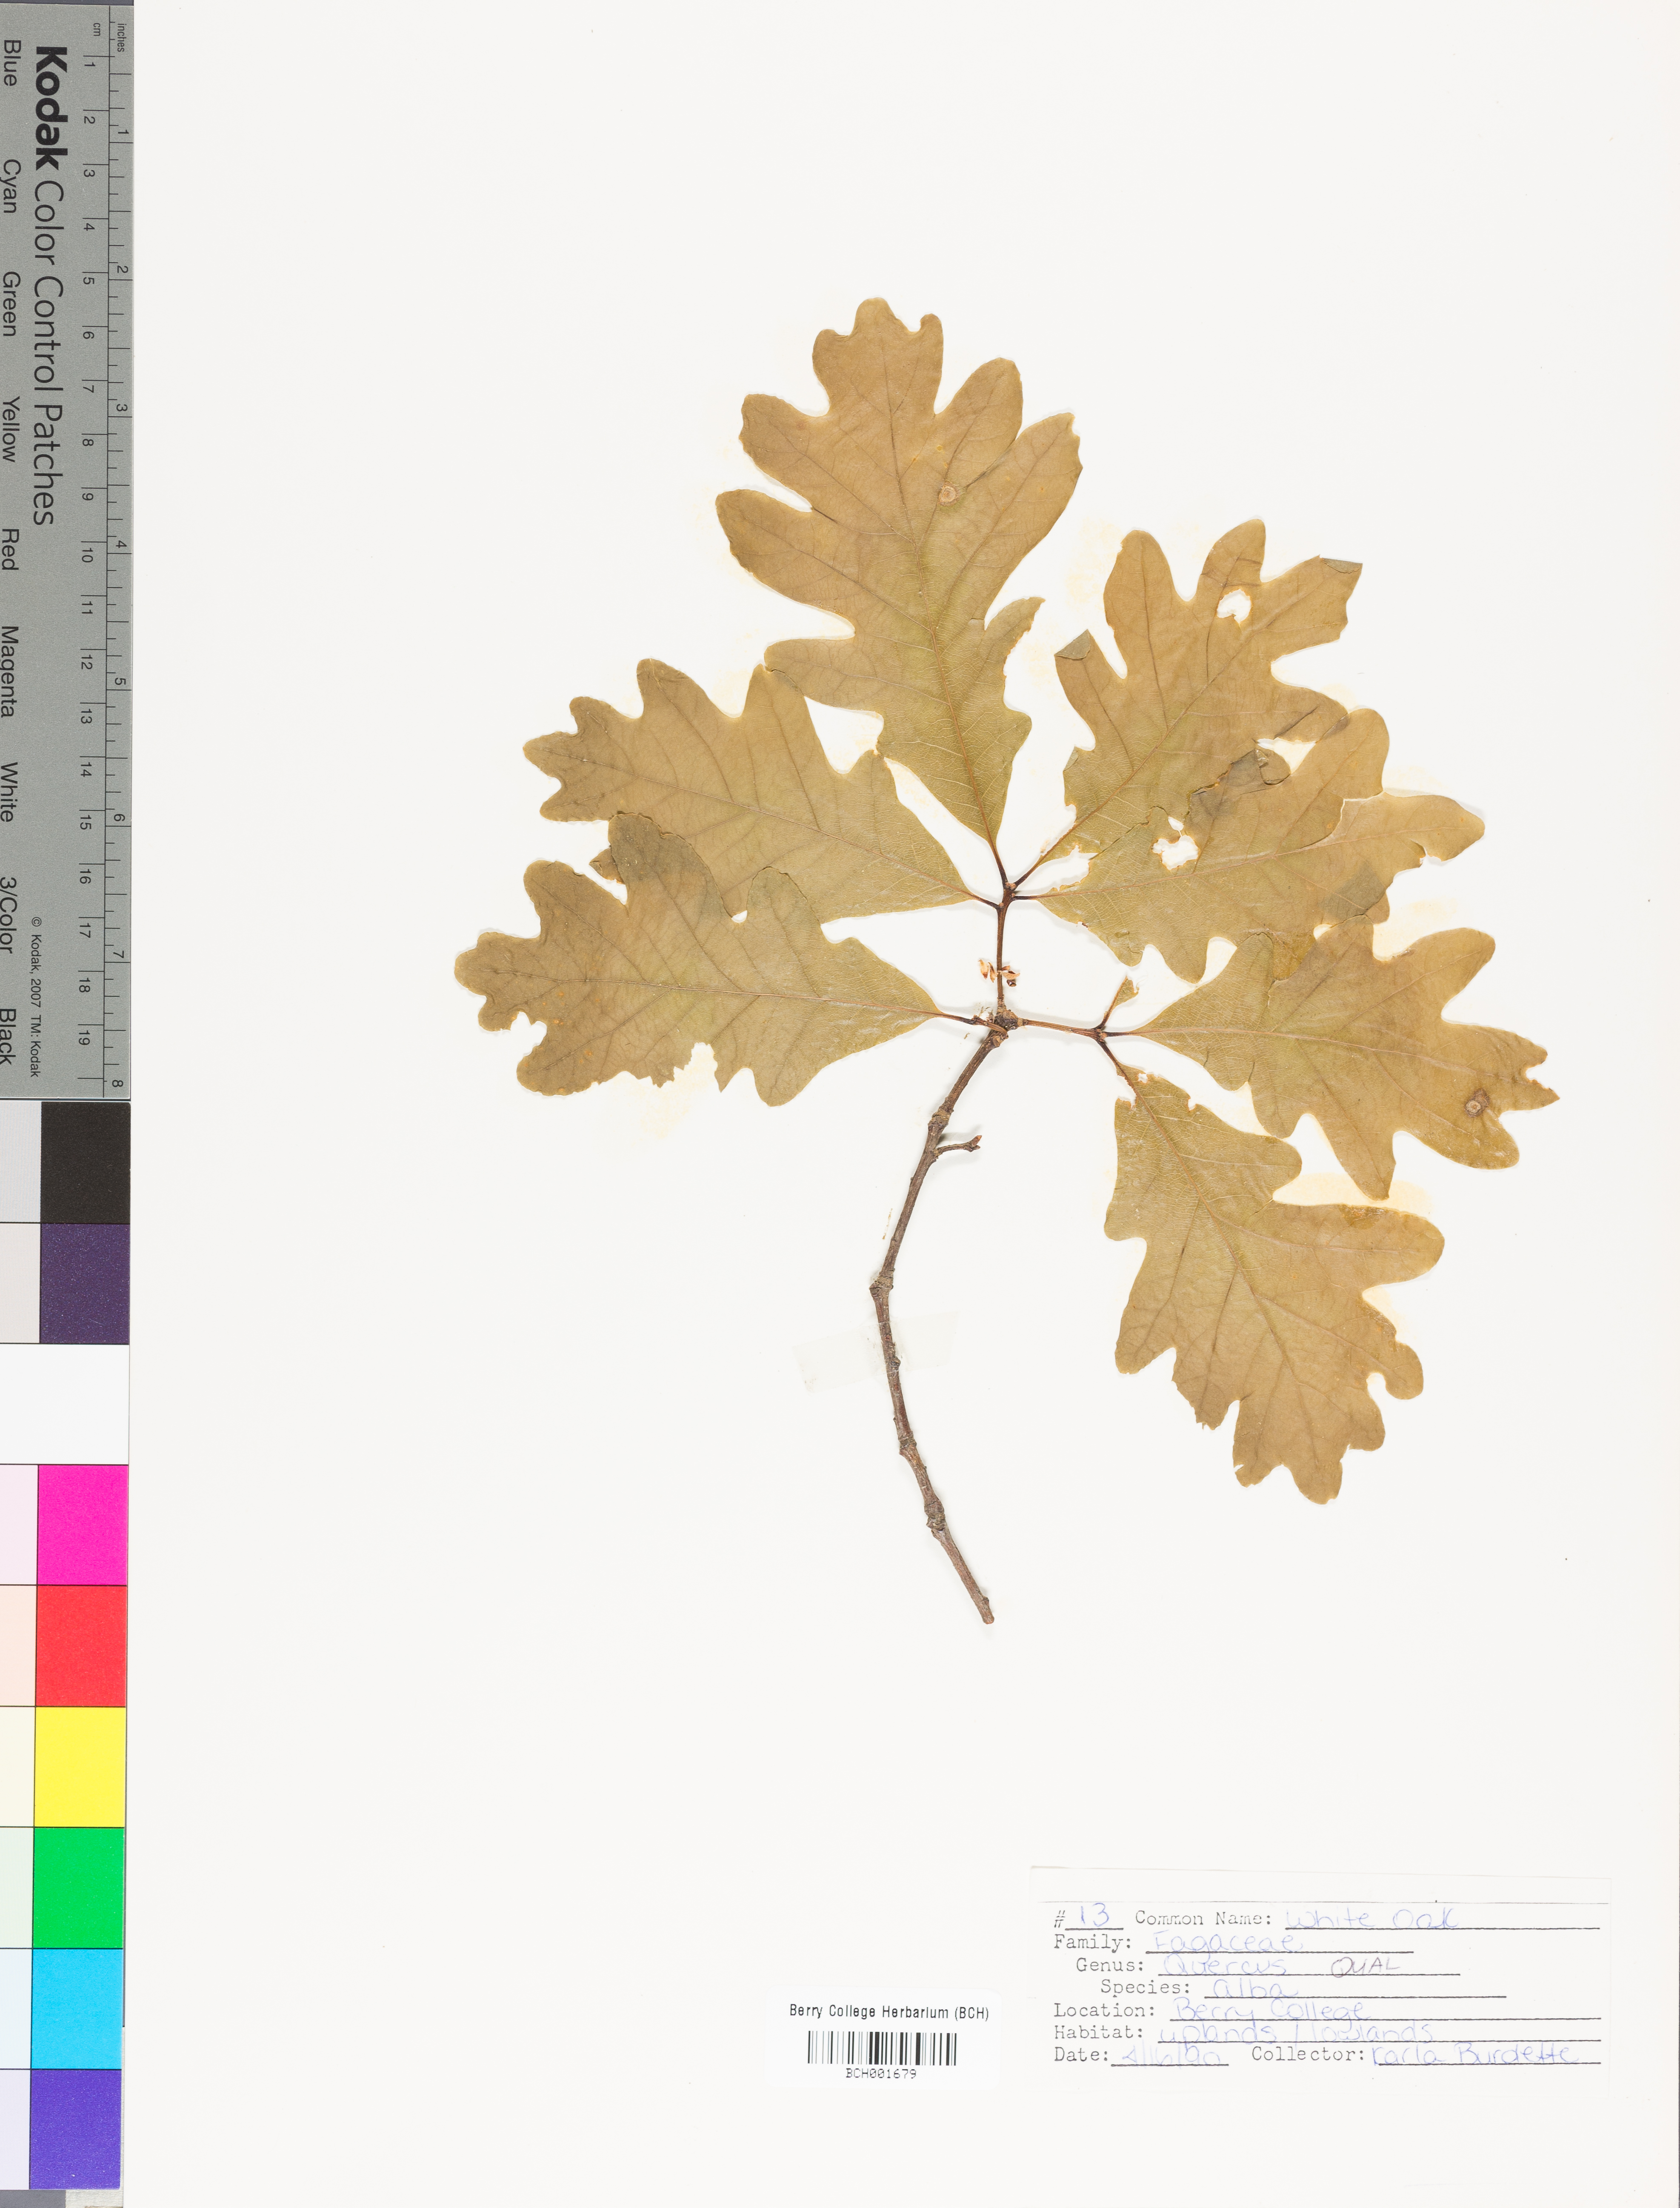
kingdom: Plantae
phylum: Tracheophyta
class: Magnoliopsida
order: Fagales
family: Fagaceae
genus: Quercus
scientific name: Quercus alba
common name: White oak
